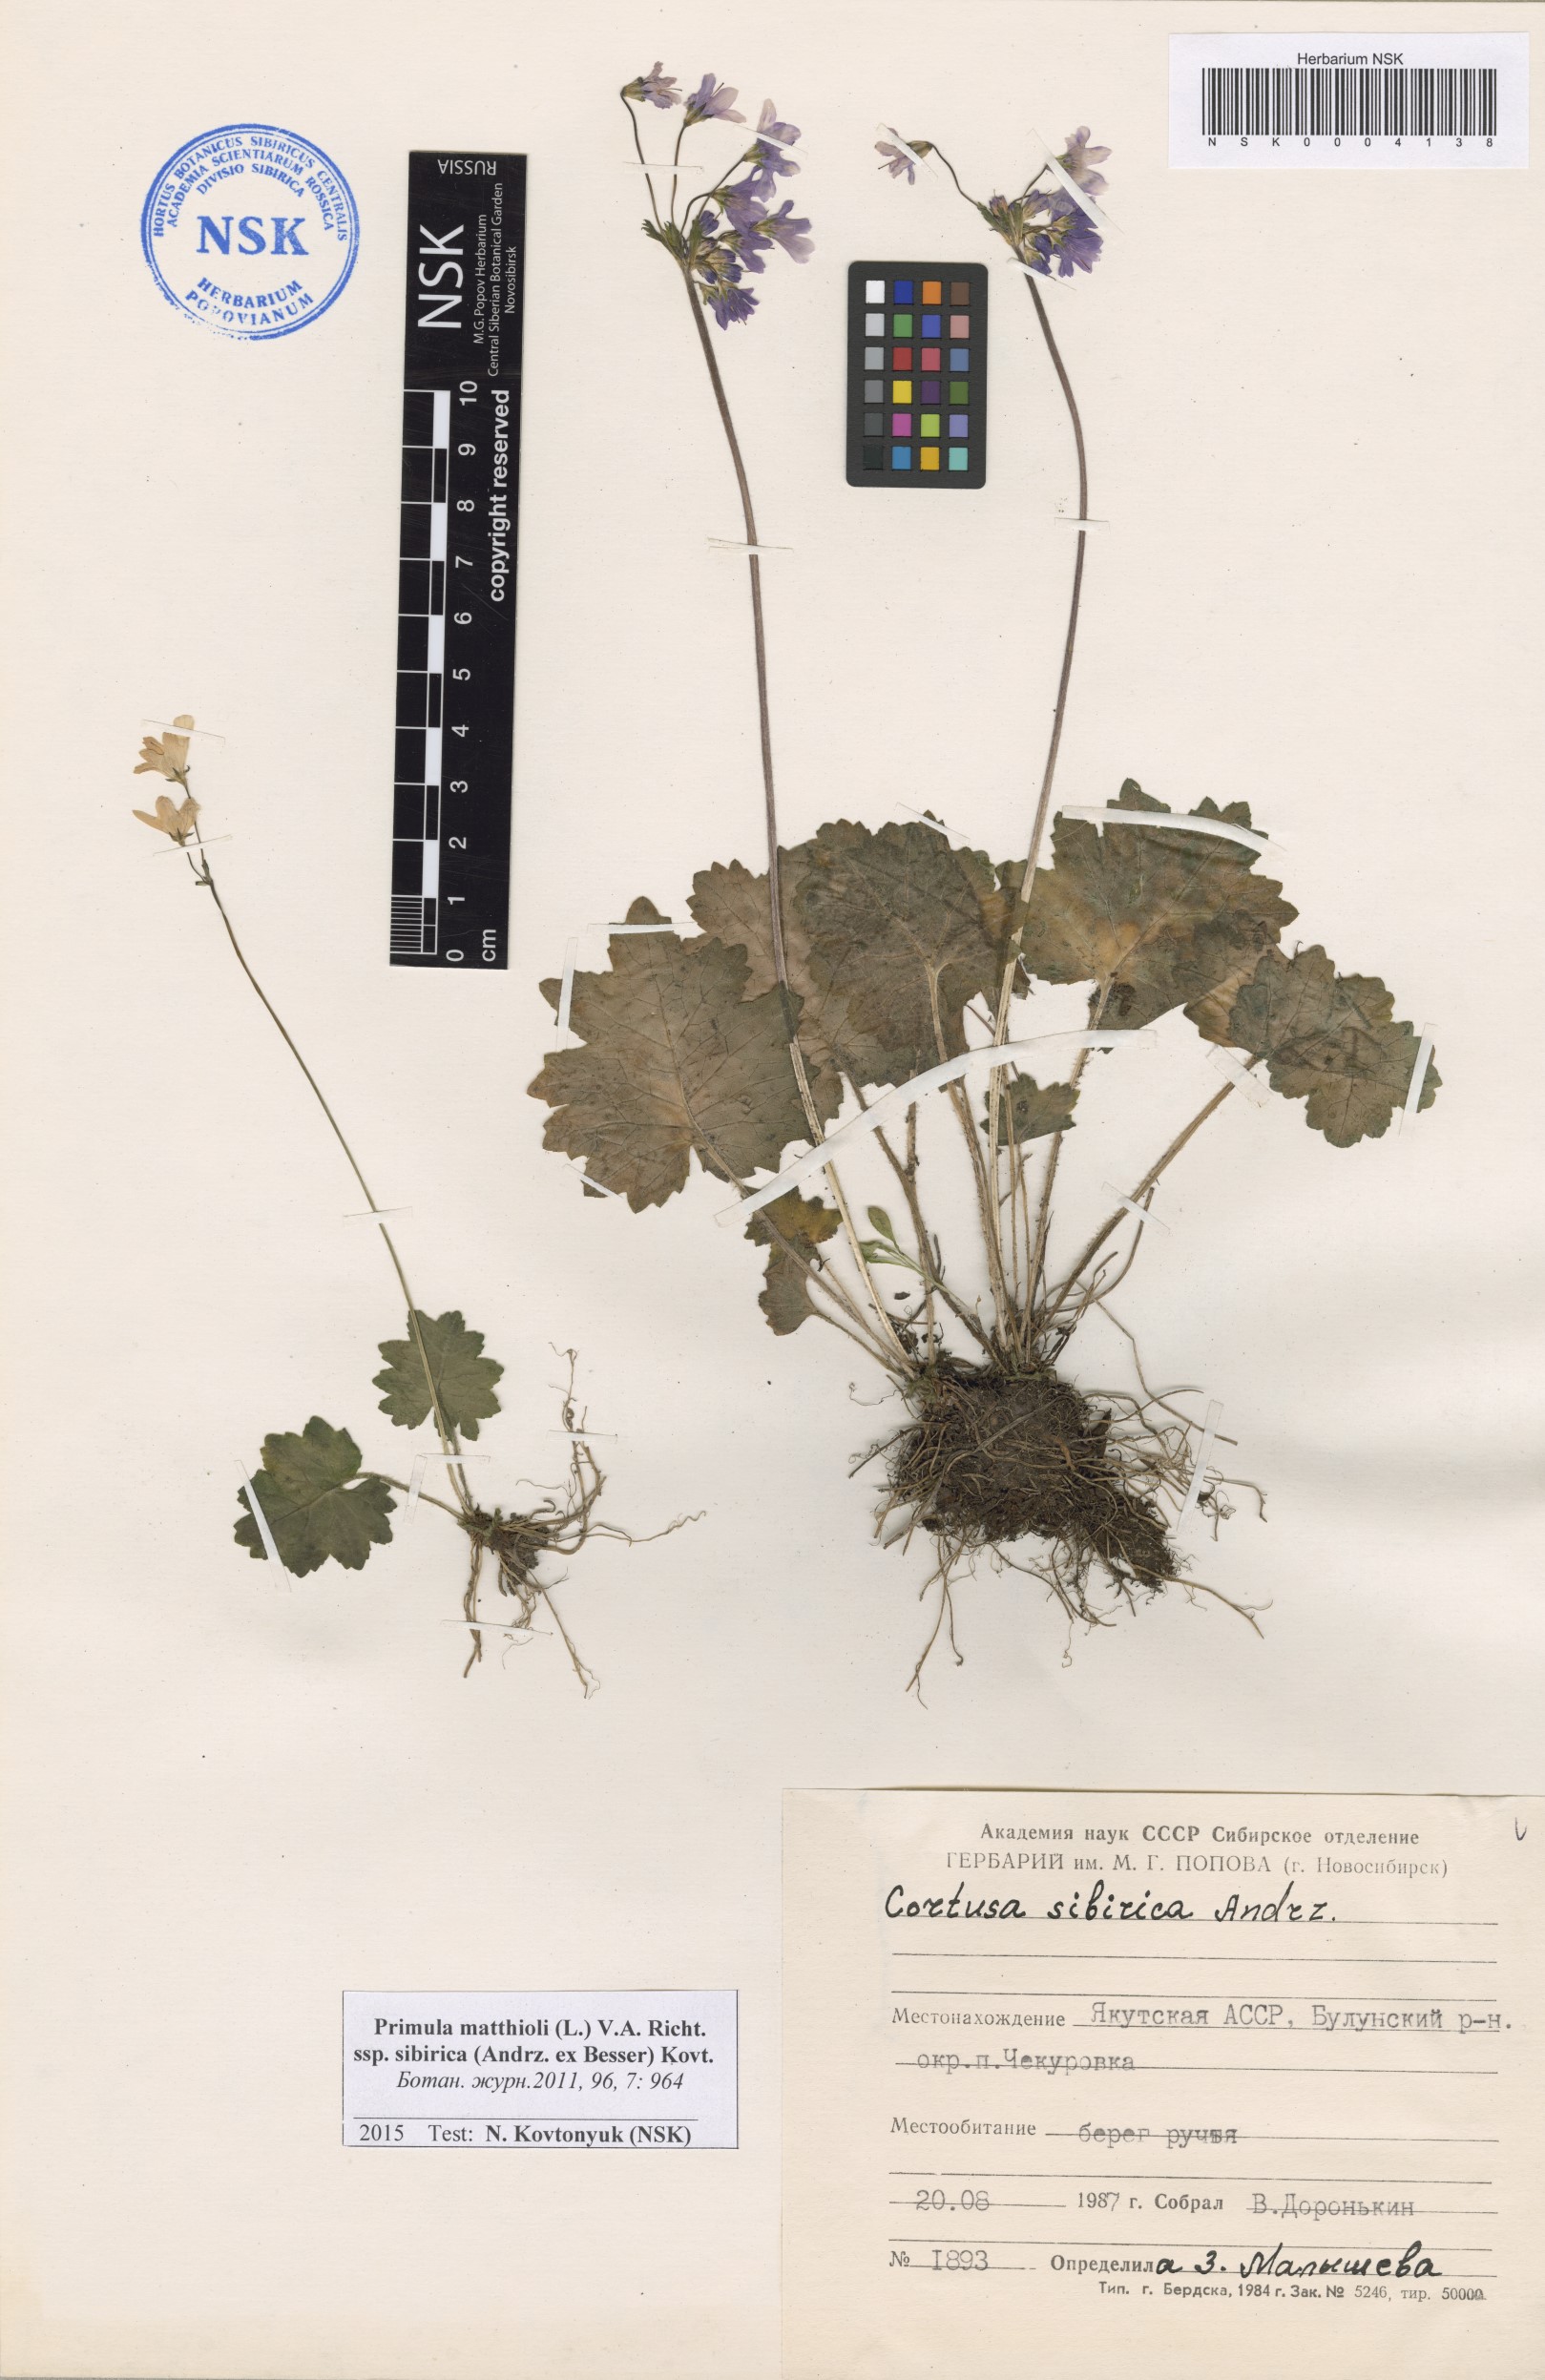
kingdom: Plantae
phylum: Tracheophyta
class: Magnoliopsida
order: Ericales
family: Primulaceae
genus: Primula
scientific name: Primula matthioli
